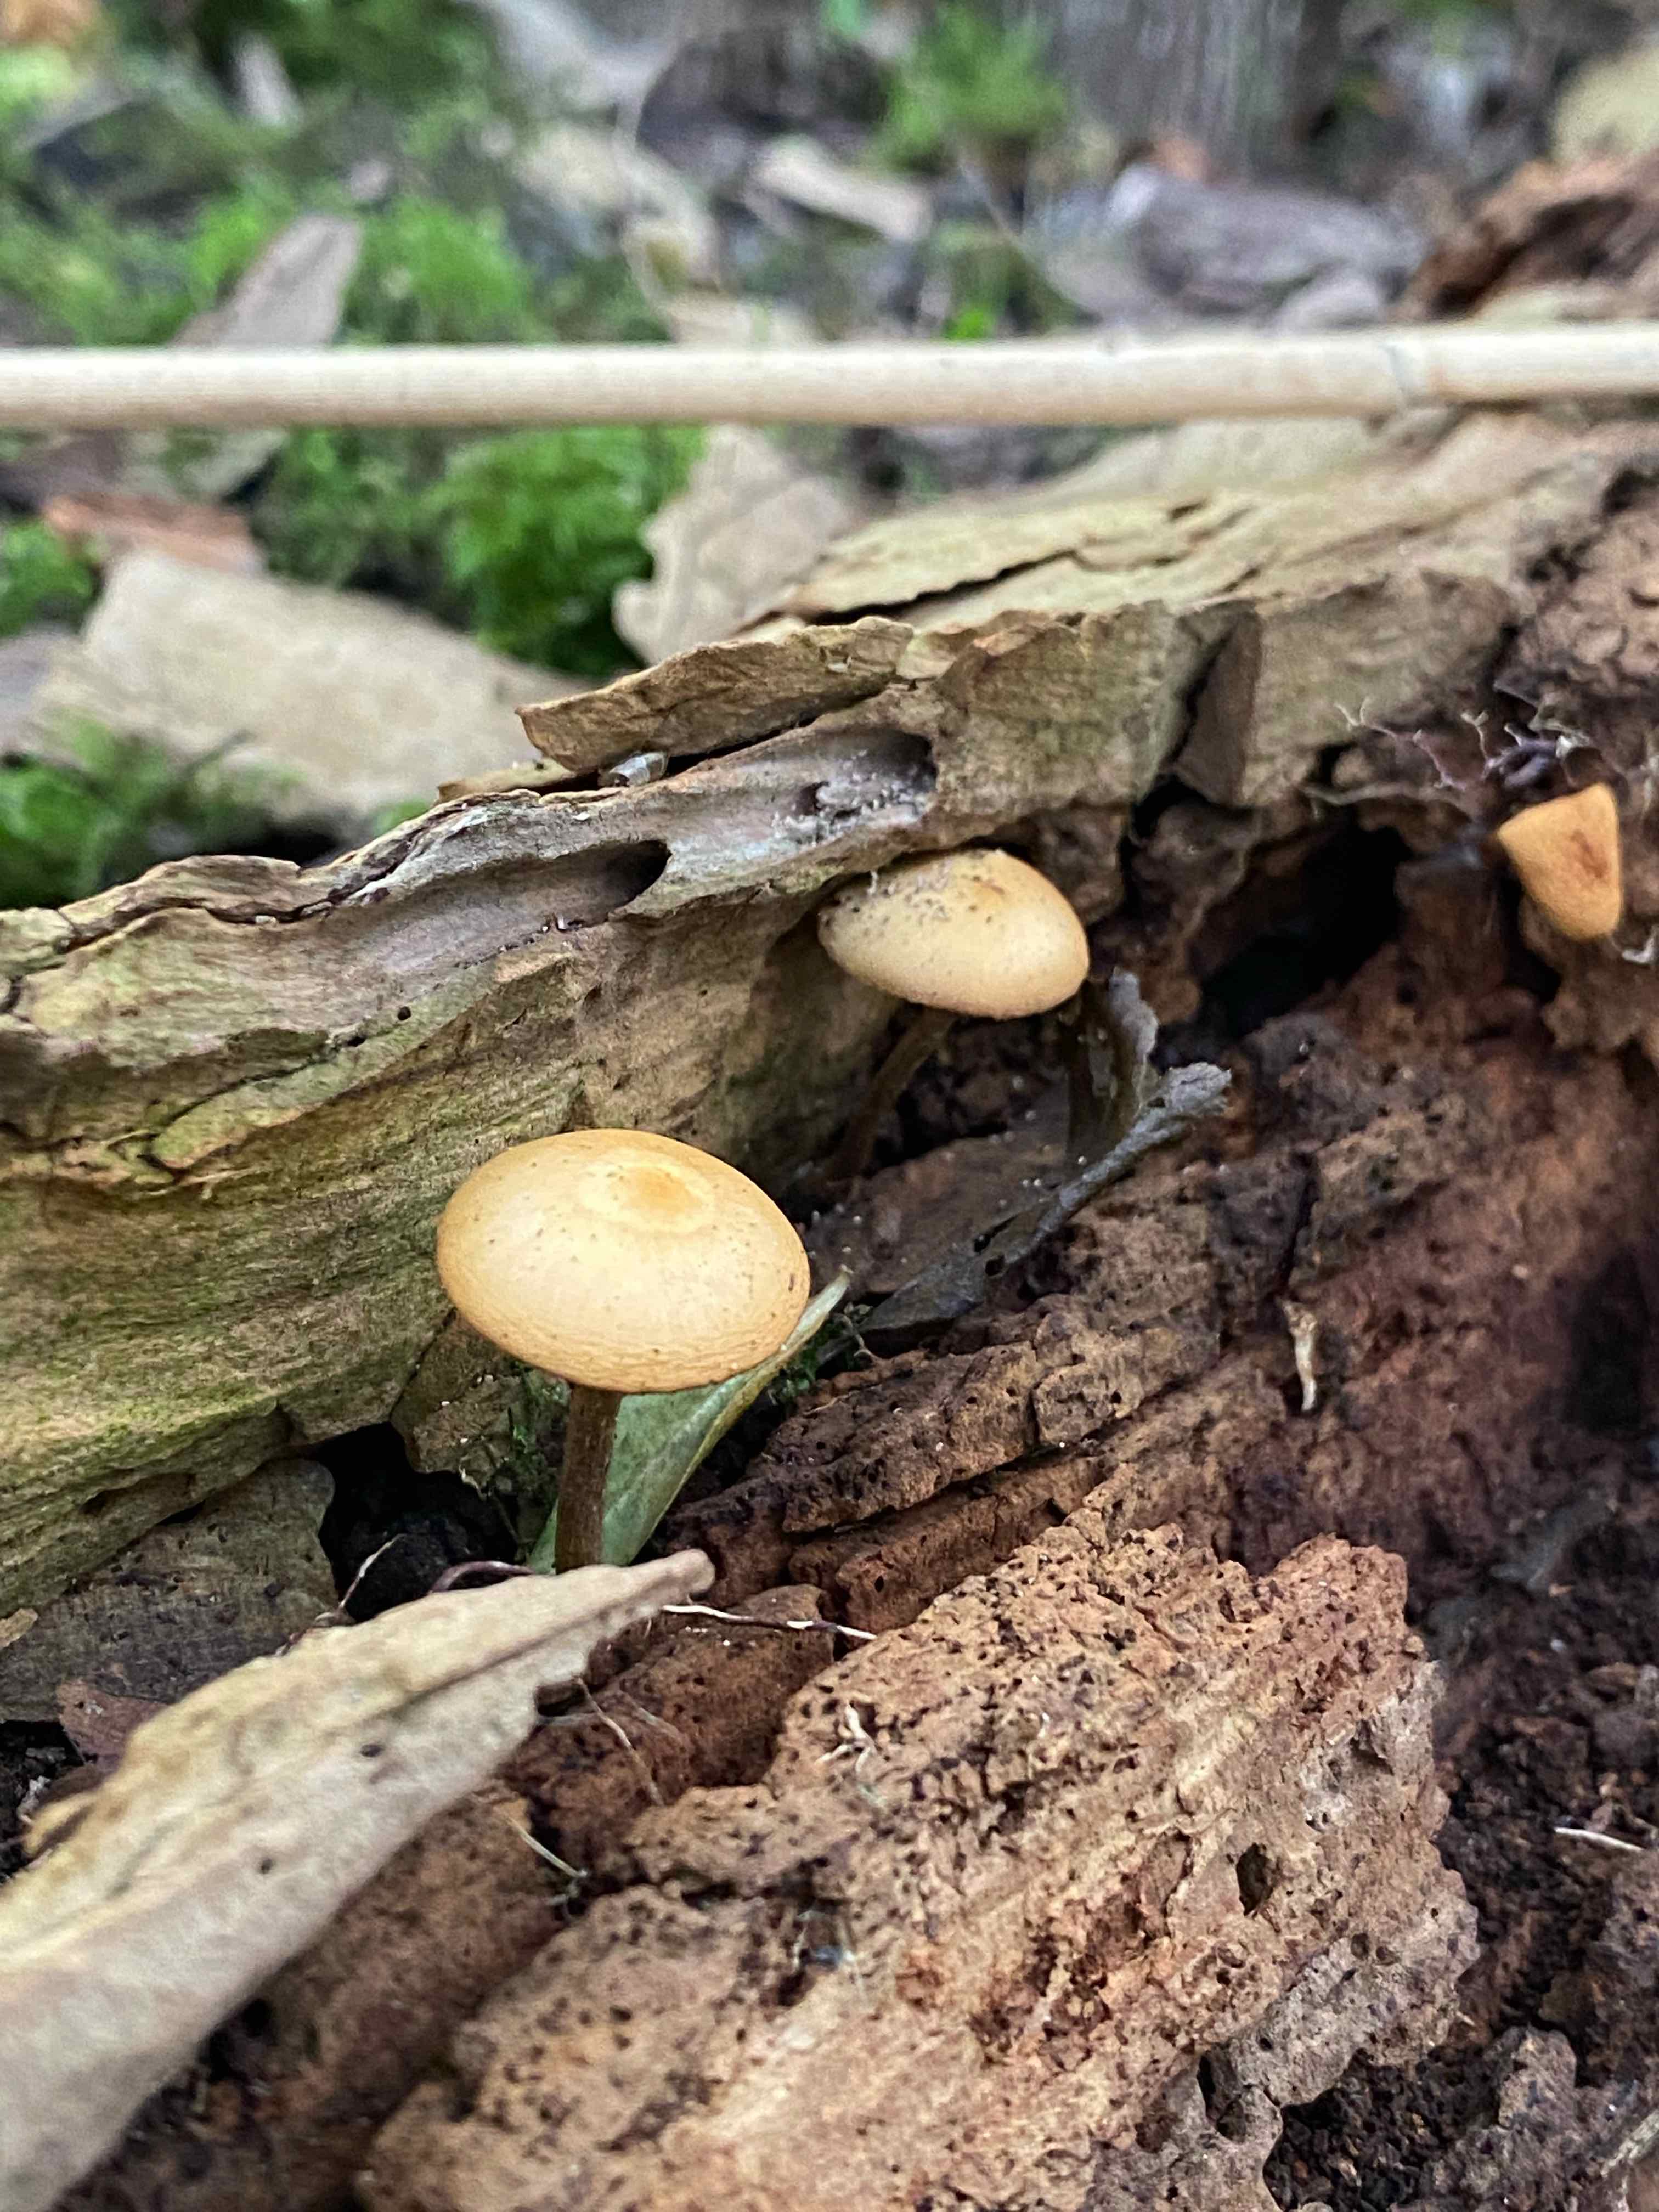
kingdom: Fungi
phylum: Basidiomycota
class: Agaricomycetes
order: Agaricales
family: Hymenogastraceae
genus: Galerina
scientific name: Galerina marginata
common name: randbæltet hjelmhat
